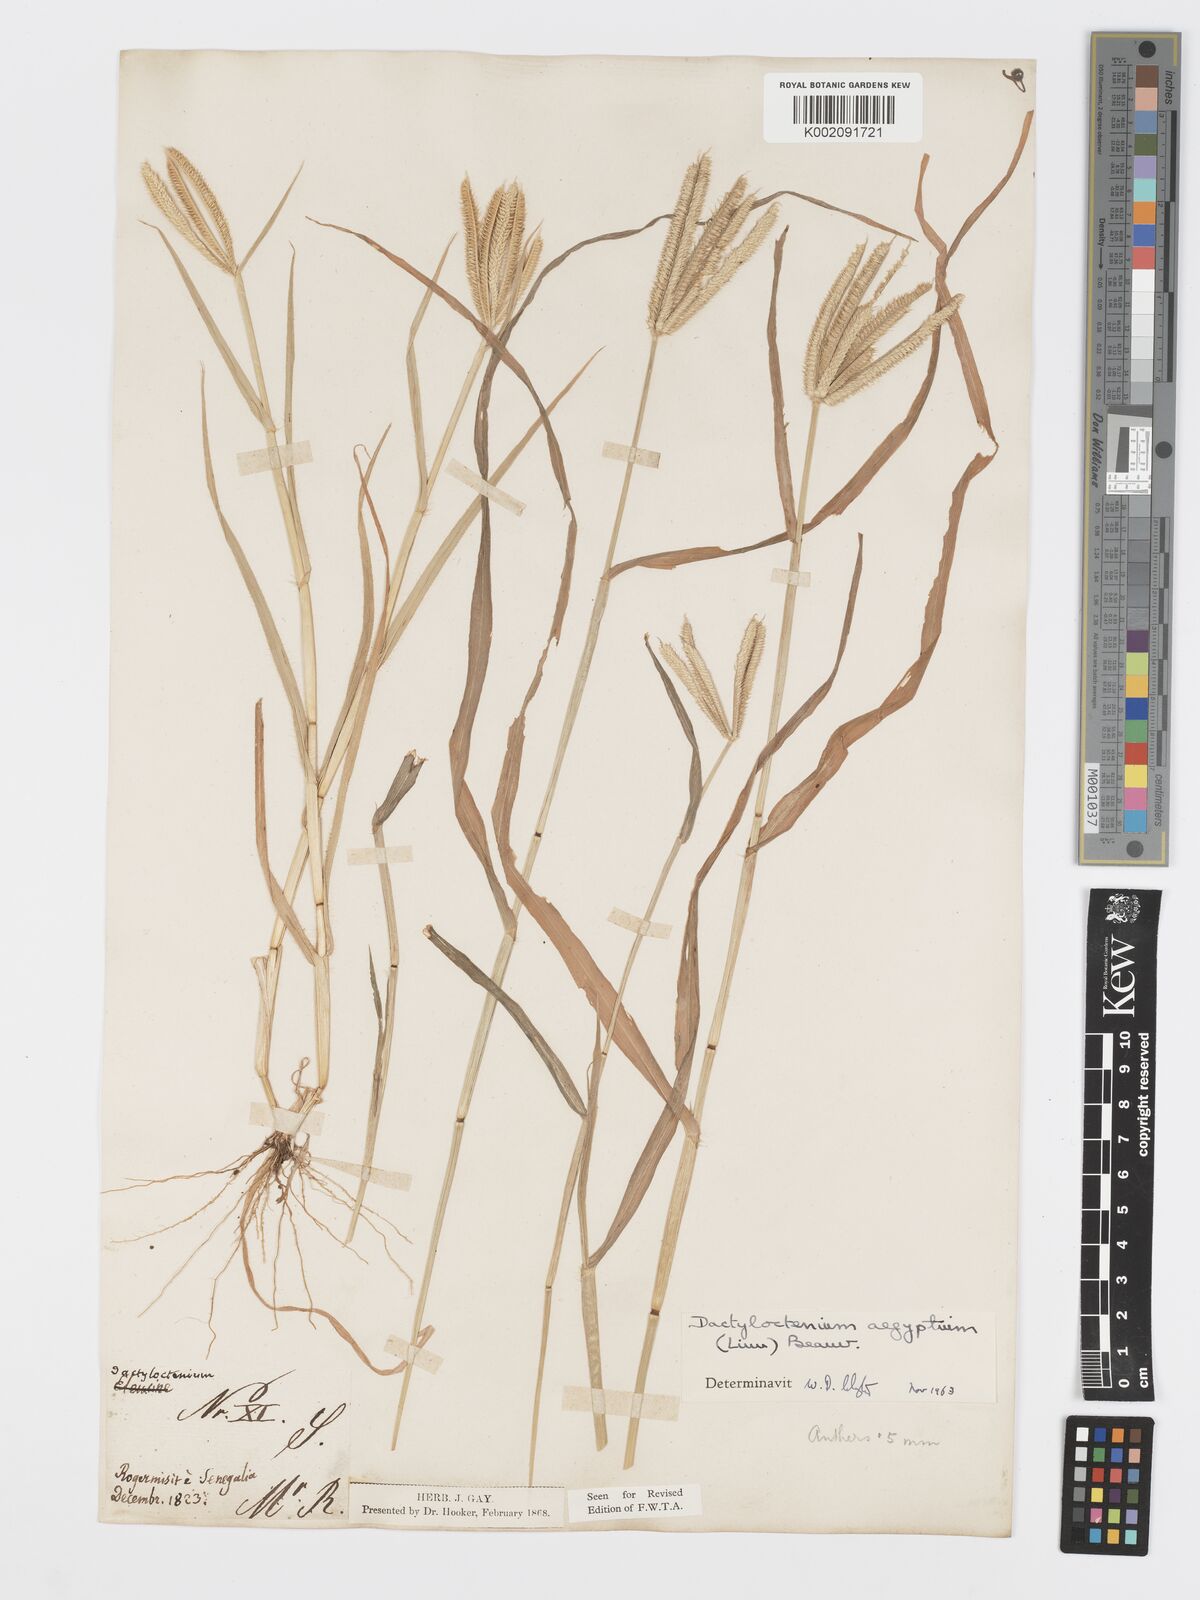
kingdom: Plantae
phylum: Tracheophyta
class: Liliopsida
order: Poales
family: Poaceae
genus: Dactyloctenium
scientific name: Dactyloctenium aegyptium
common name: Egyptian grass
